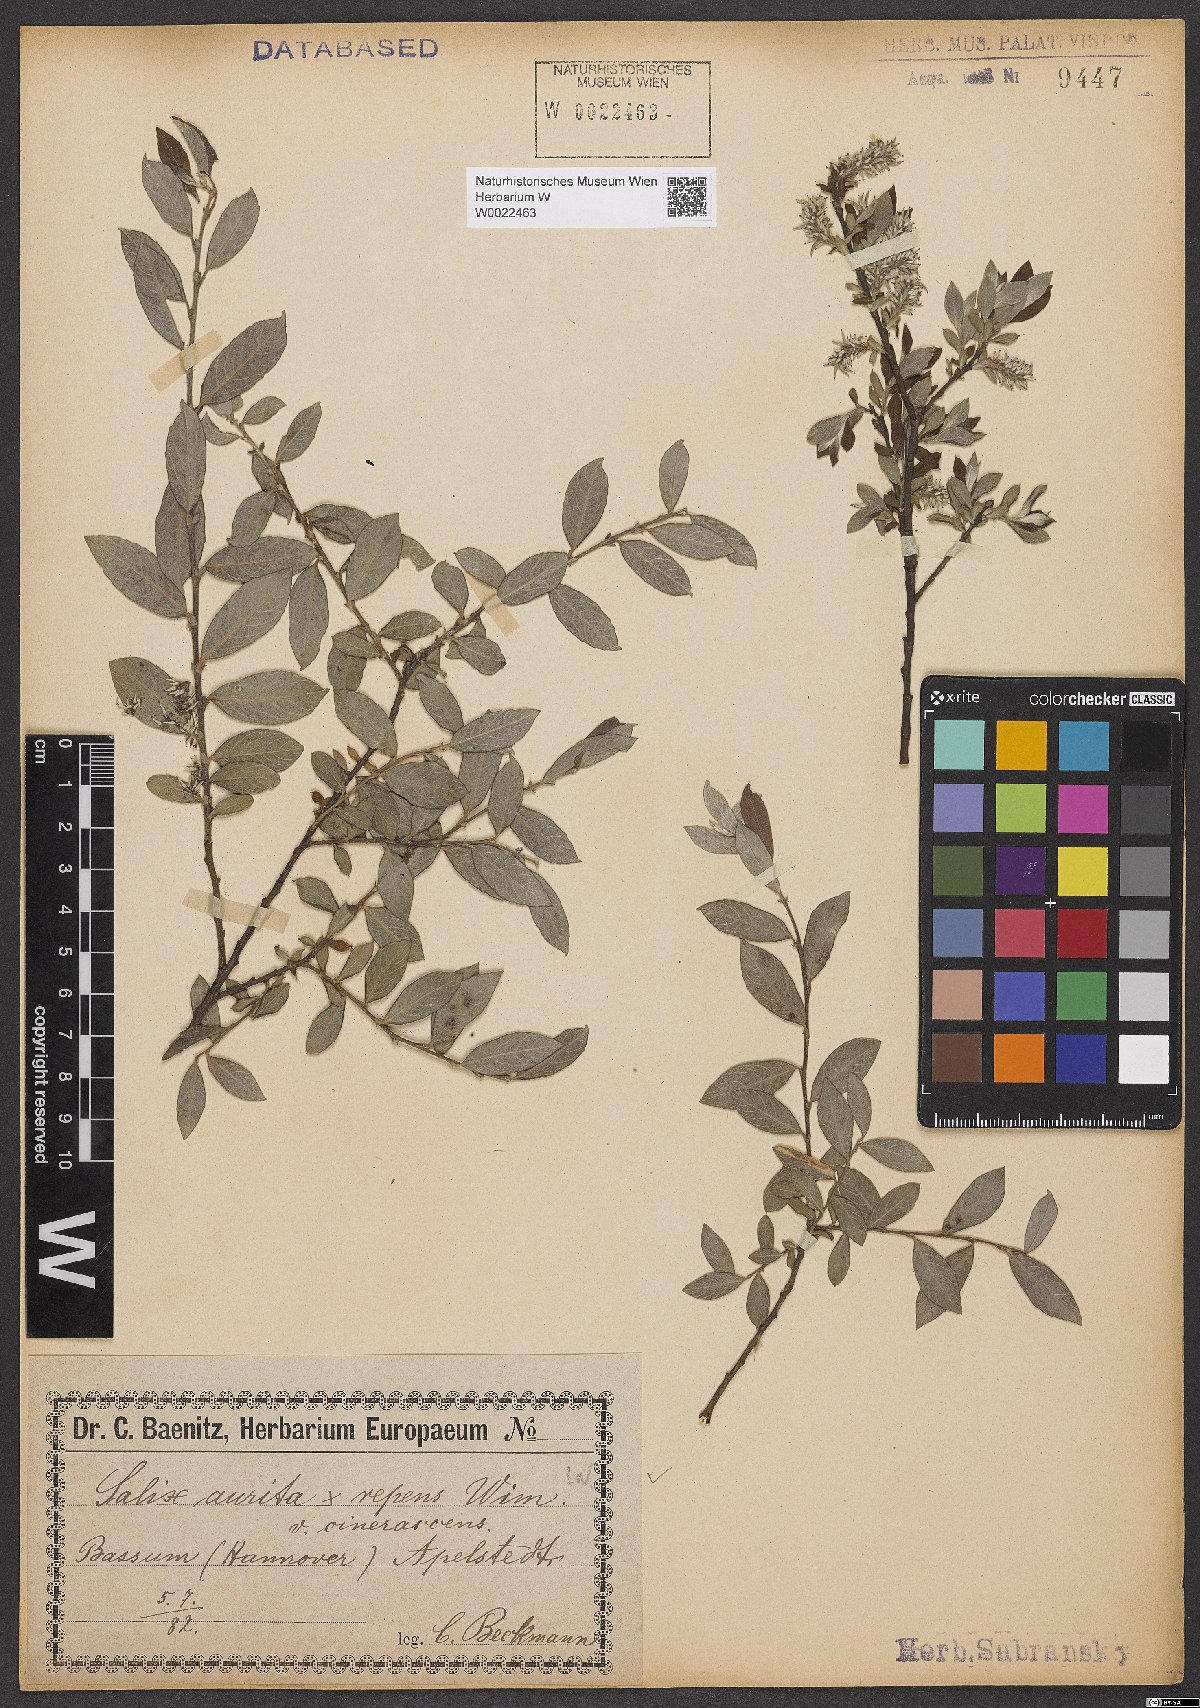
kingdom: Plantae
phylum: Tracheophyta
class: Magnoliopsida
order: Malpighiales
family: Salicaceae
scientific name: Salicaceae
